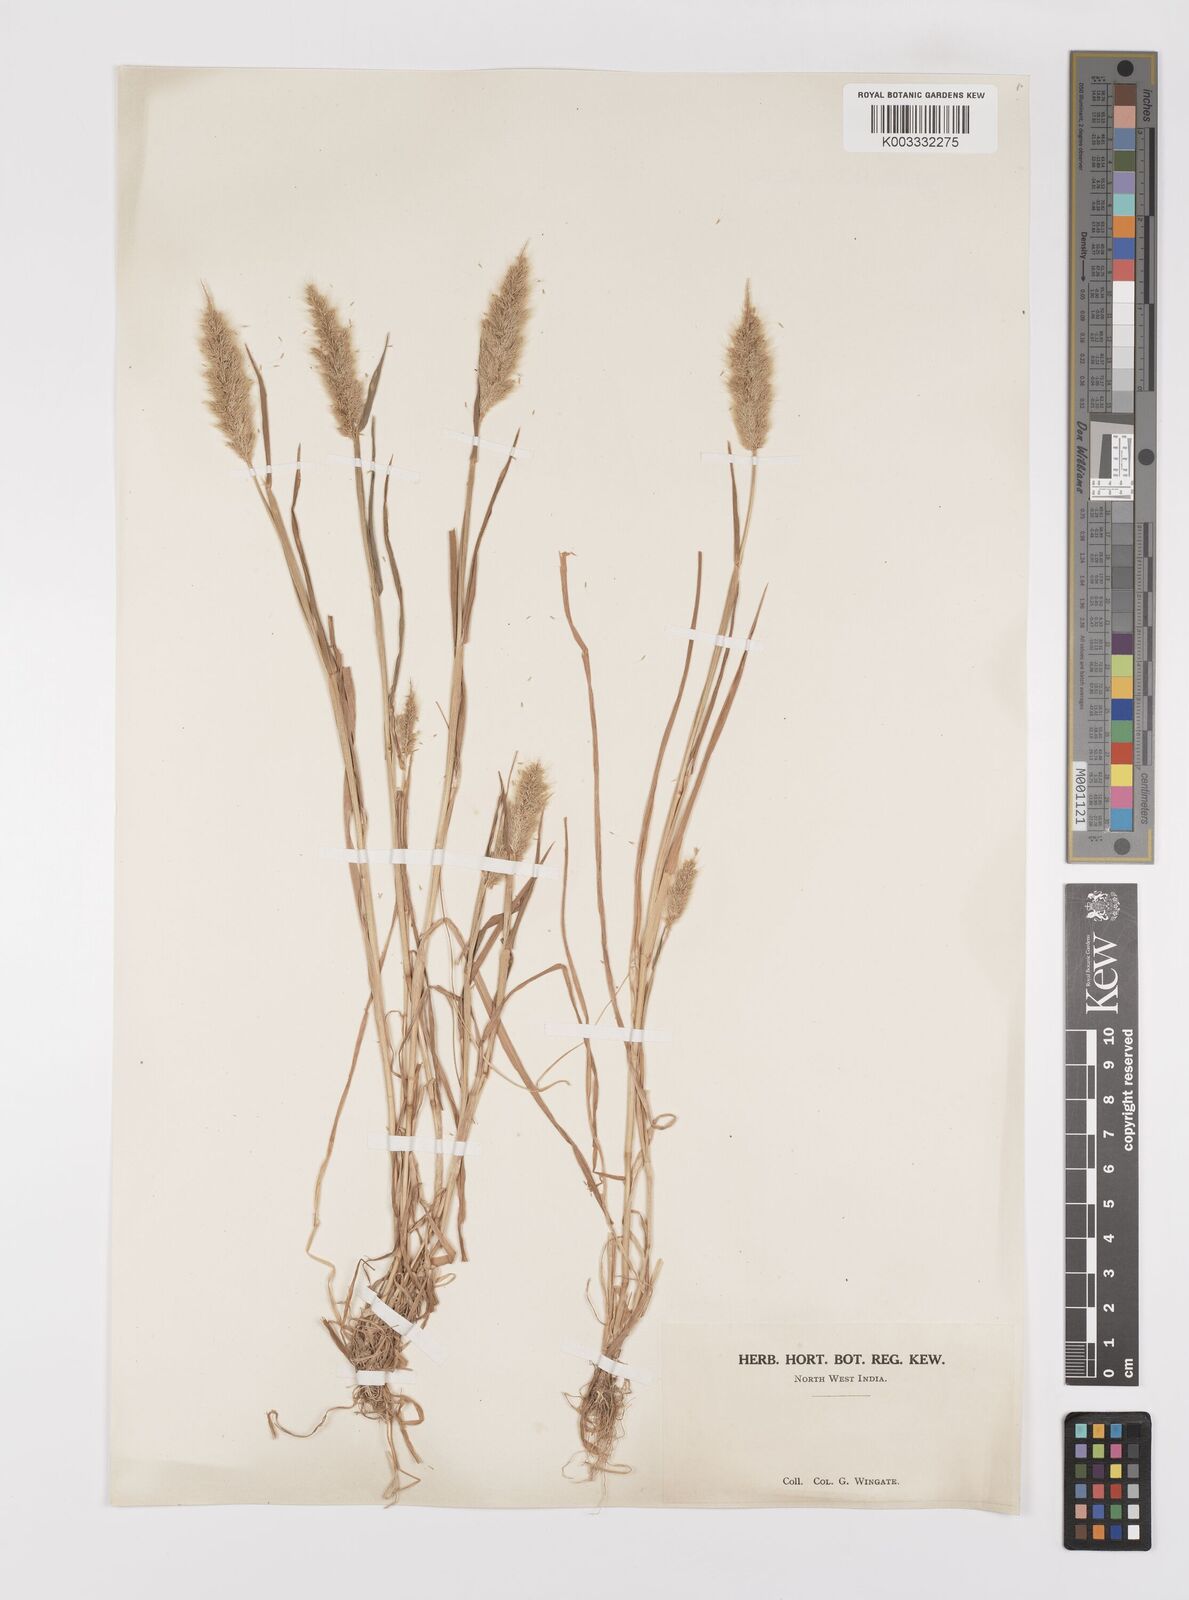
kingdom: Plantae
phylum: Tracheophyta
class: Liliopsida
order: Poales
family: Poaceae
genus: Polypogon
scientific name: Polypogon monspeliensis
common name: Annual rabbitsfoot grass
